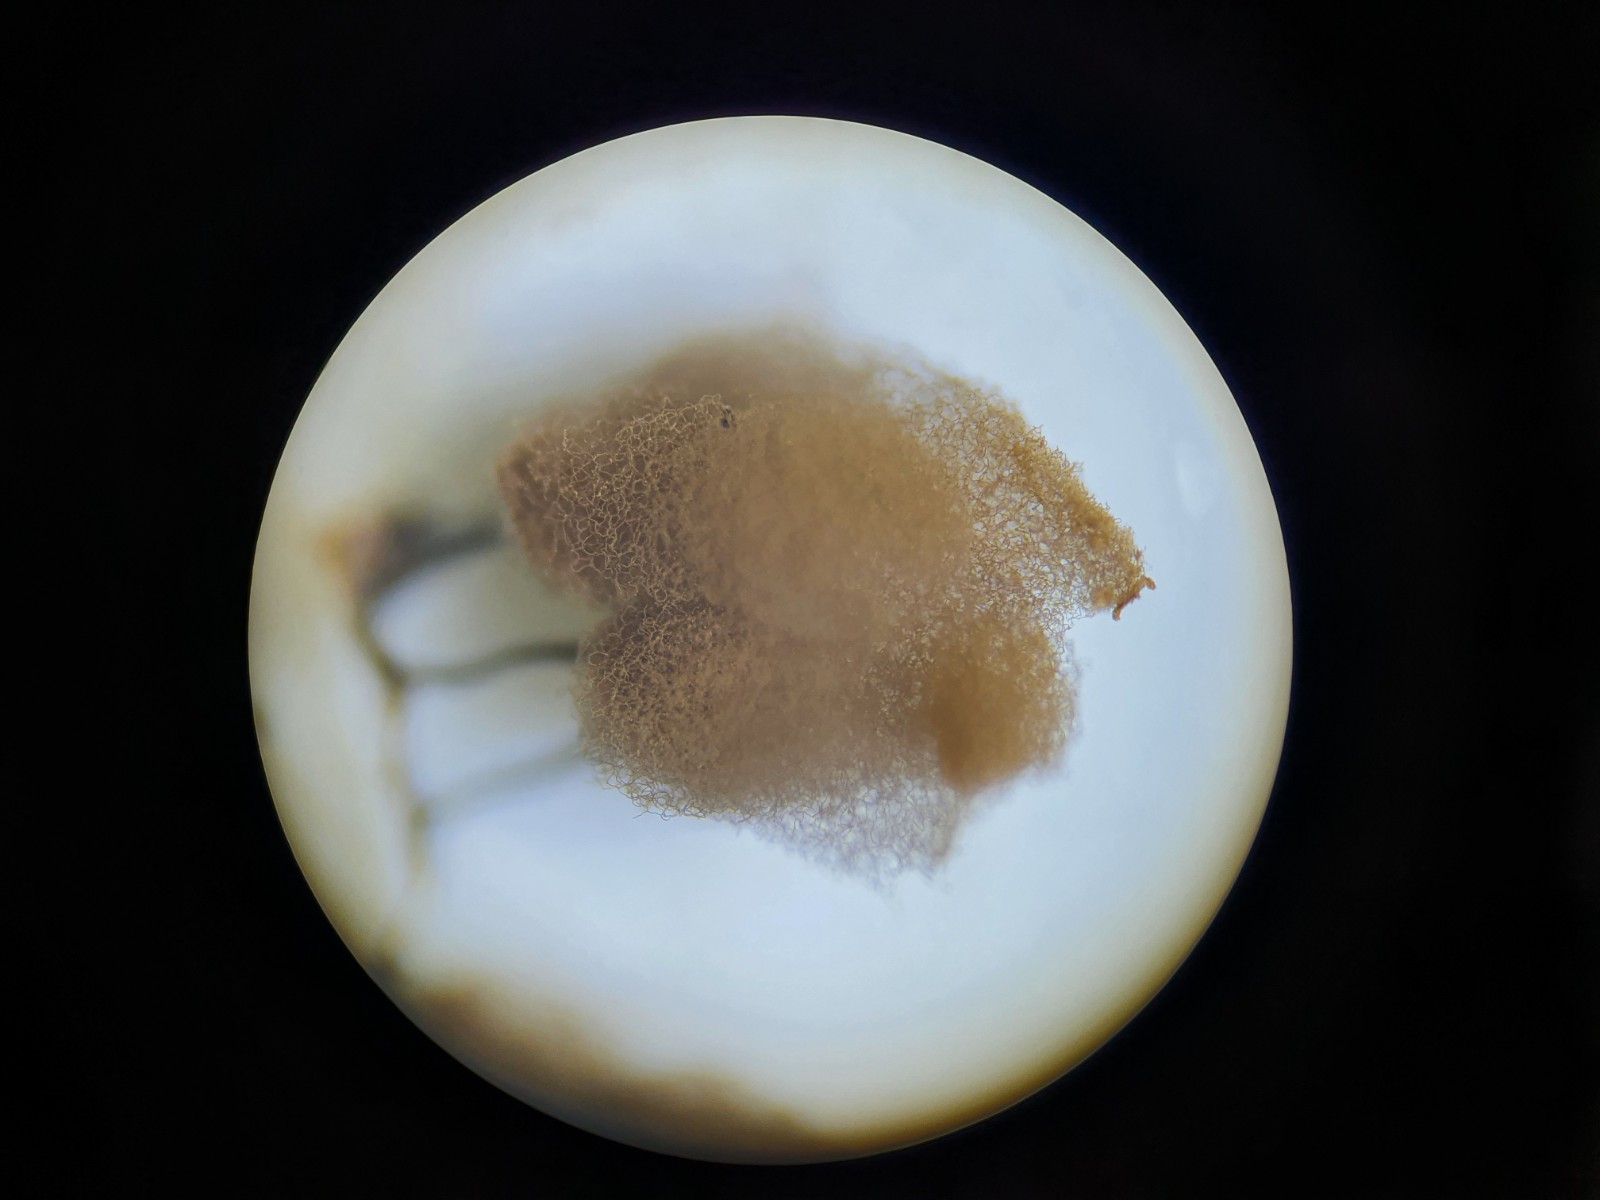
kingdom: Protozoa
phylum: Mycetozoa
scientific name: Mycetozoa
